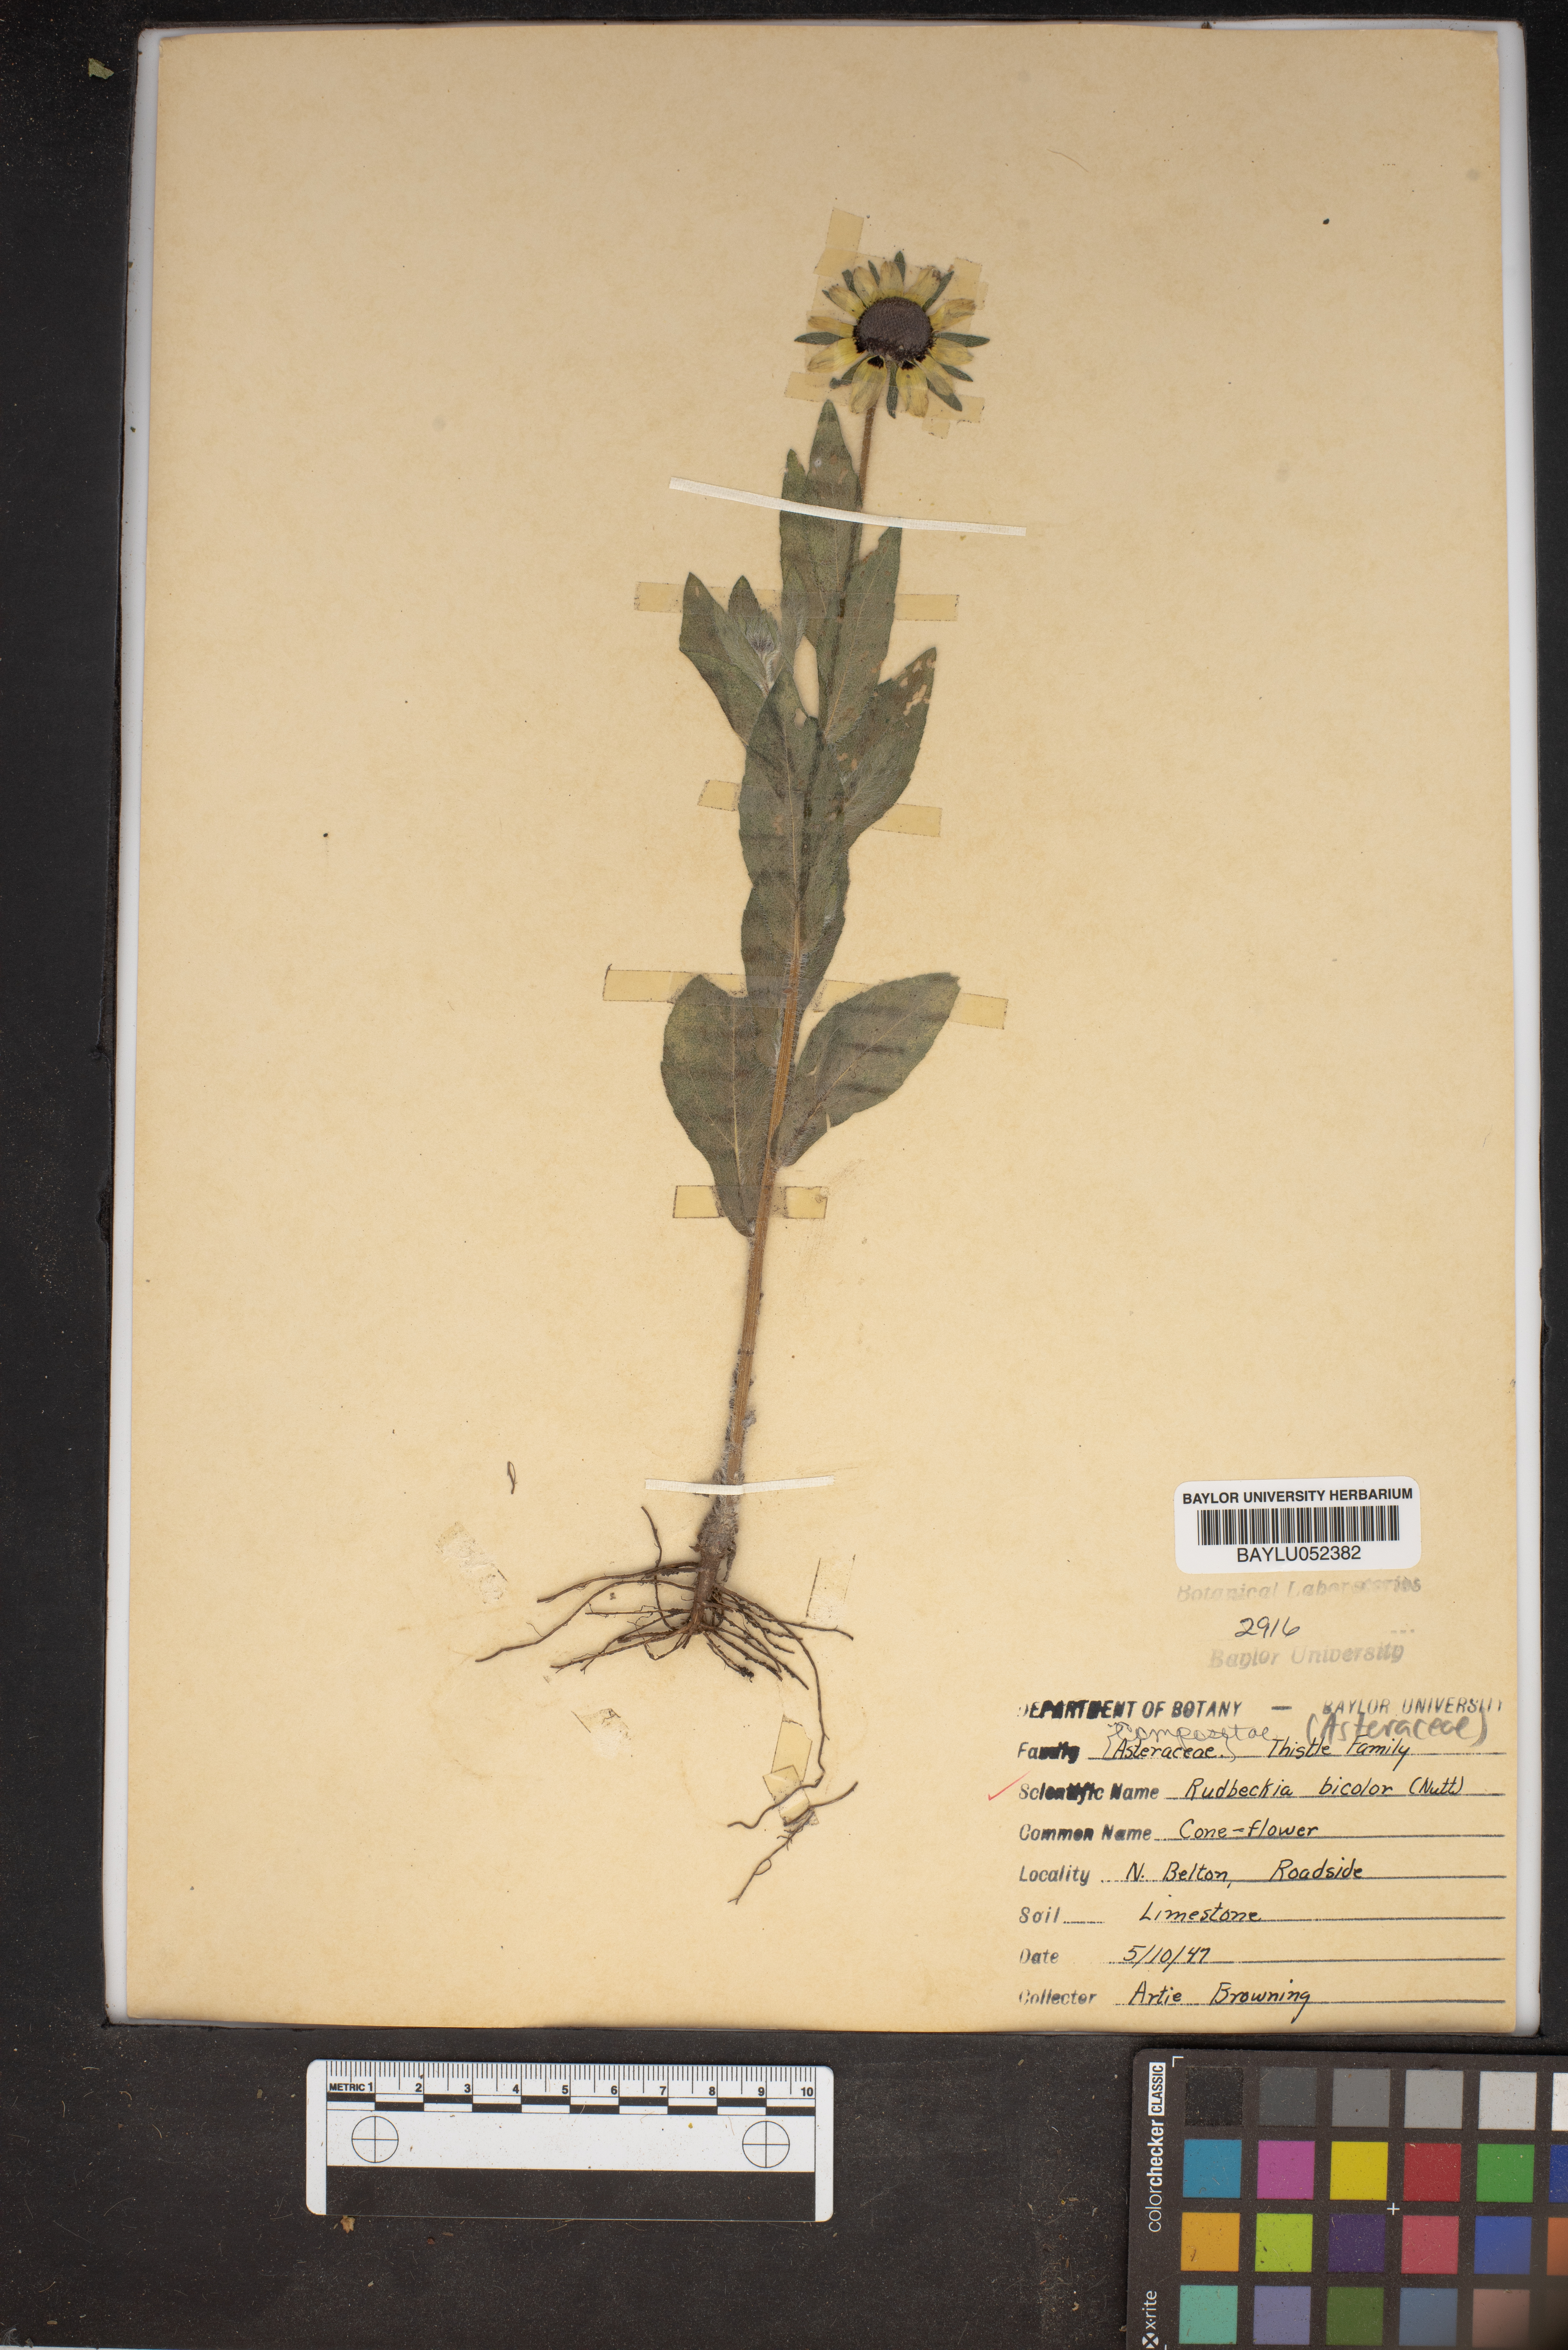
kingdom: Plantae
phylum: Tracheophyta
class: Magnoliopsida
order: Asterales
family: Asteraceae
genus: Rudbeckia
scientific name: Rudbeckia hirta
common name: Black-eyed-susan
